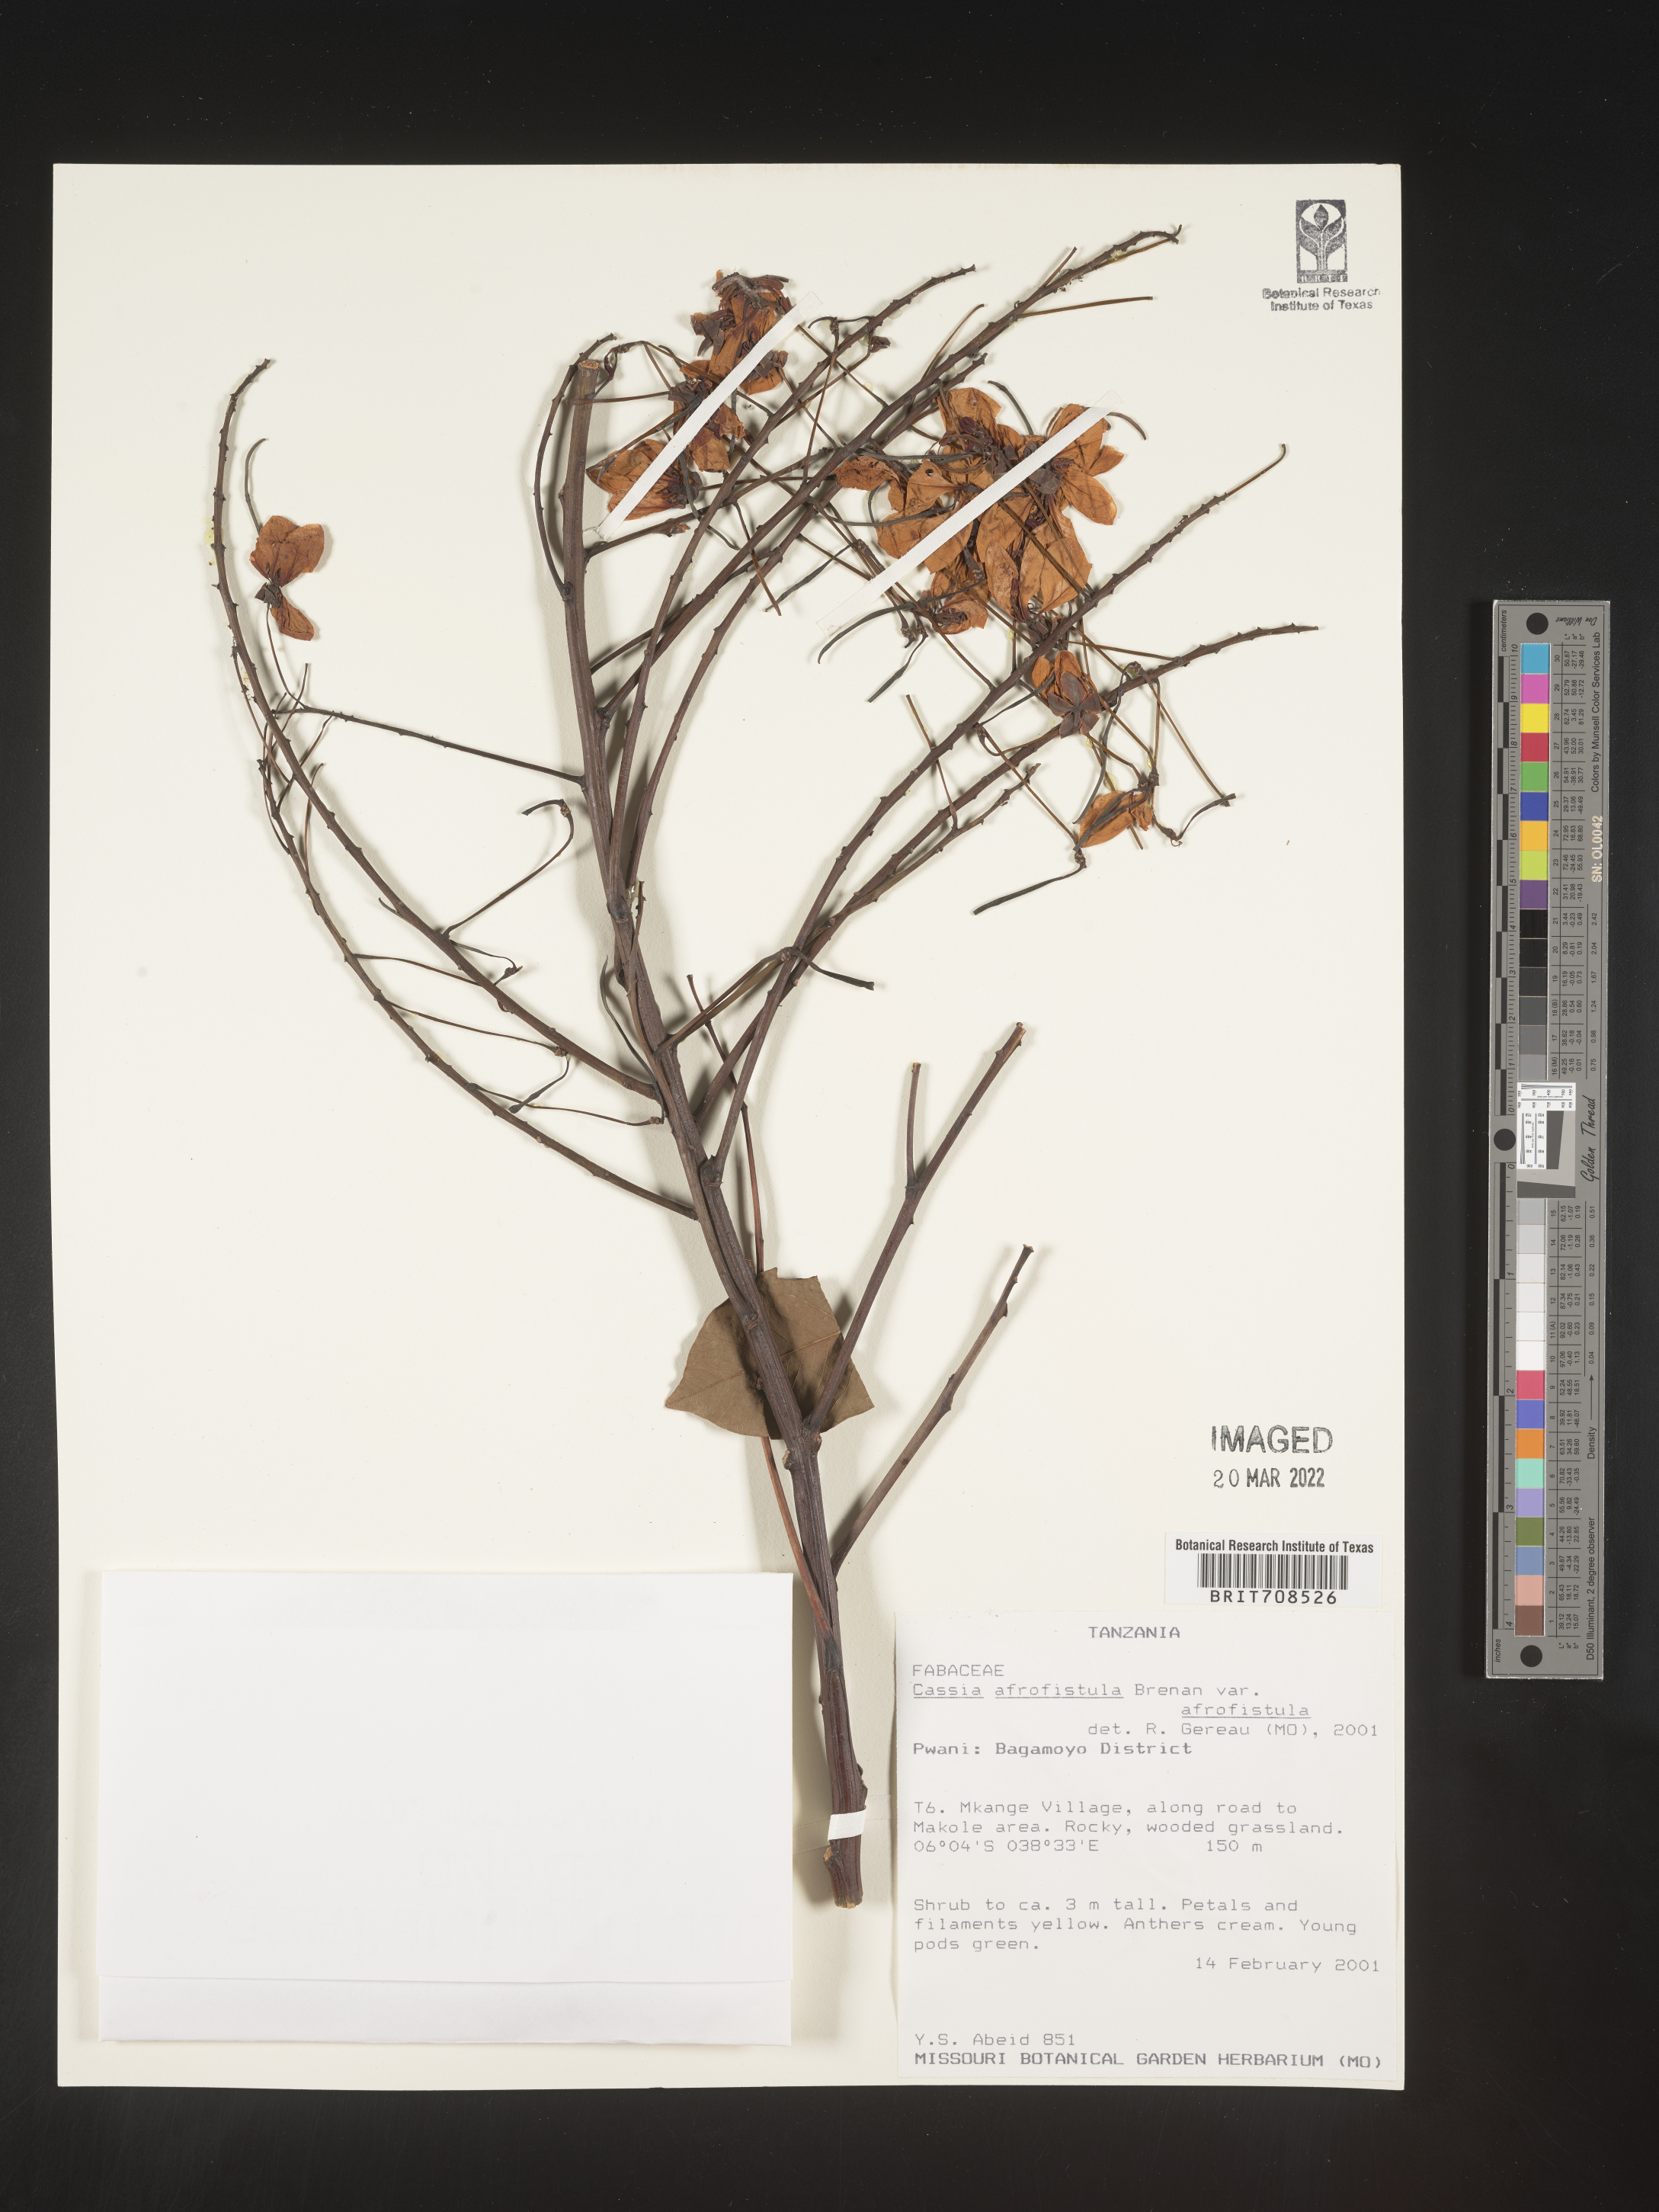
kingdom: Plantae
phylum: Tracheophyta
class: Magnoliopsida
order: Fabales
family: Fabaceae
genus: Cassia
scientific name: Cassia
